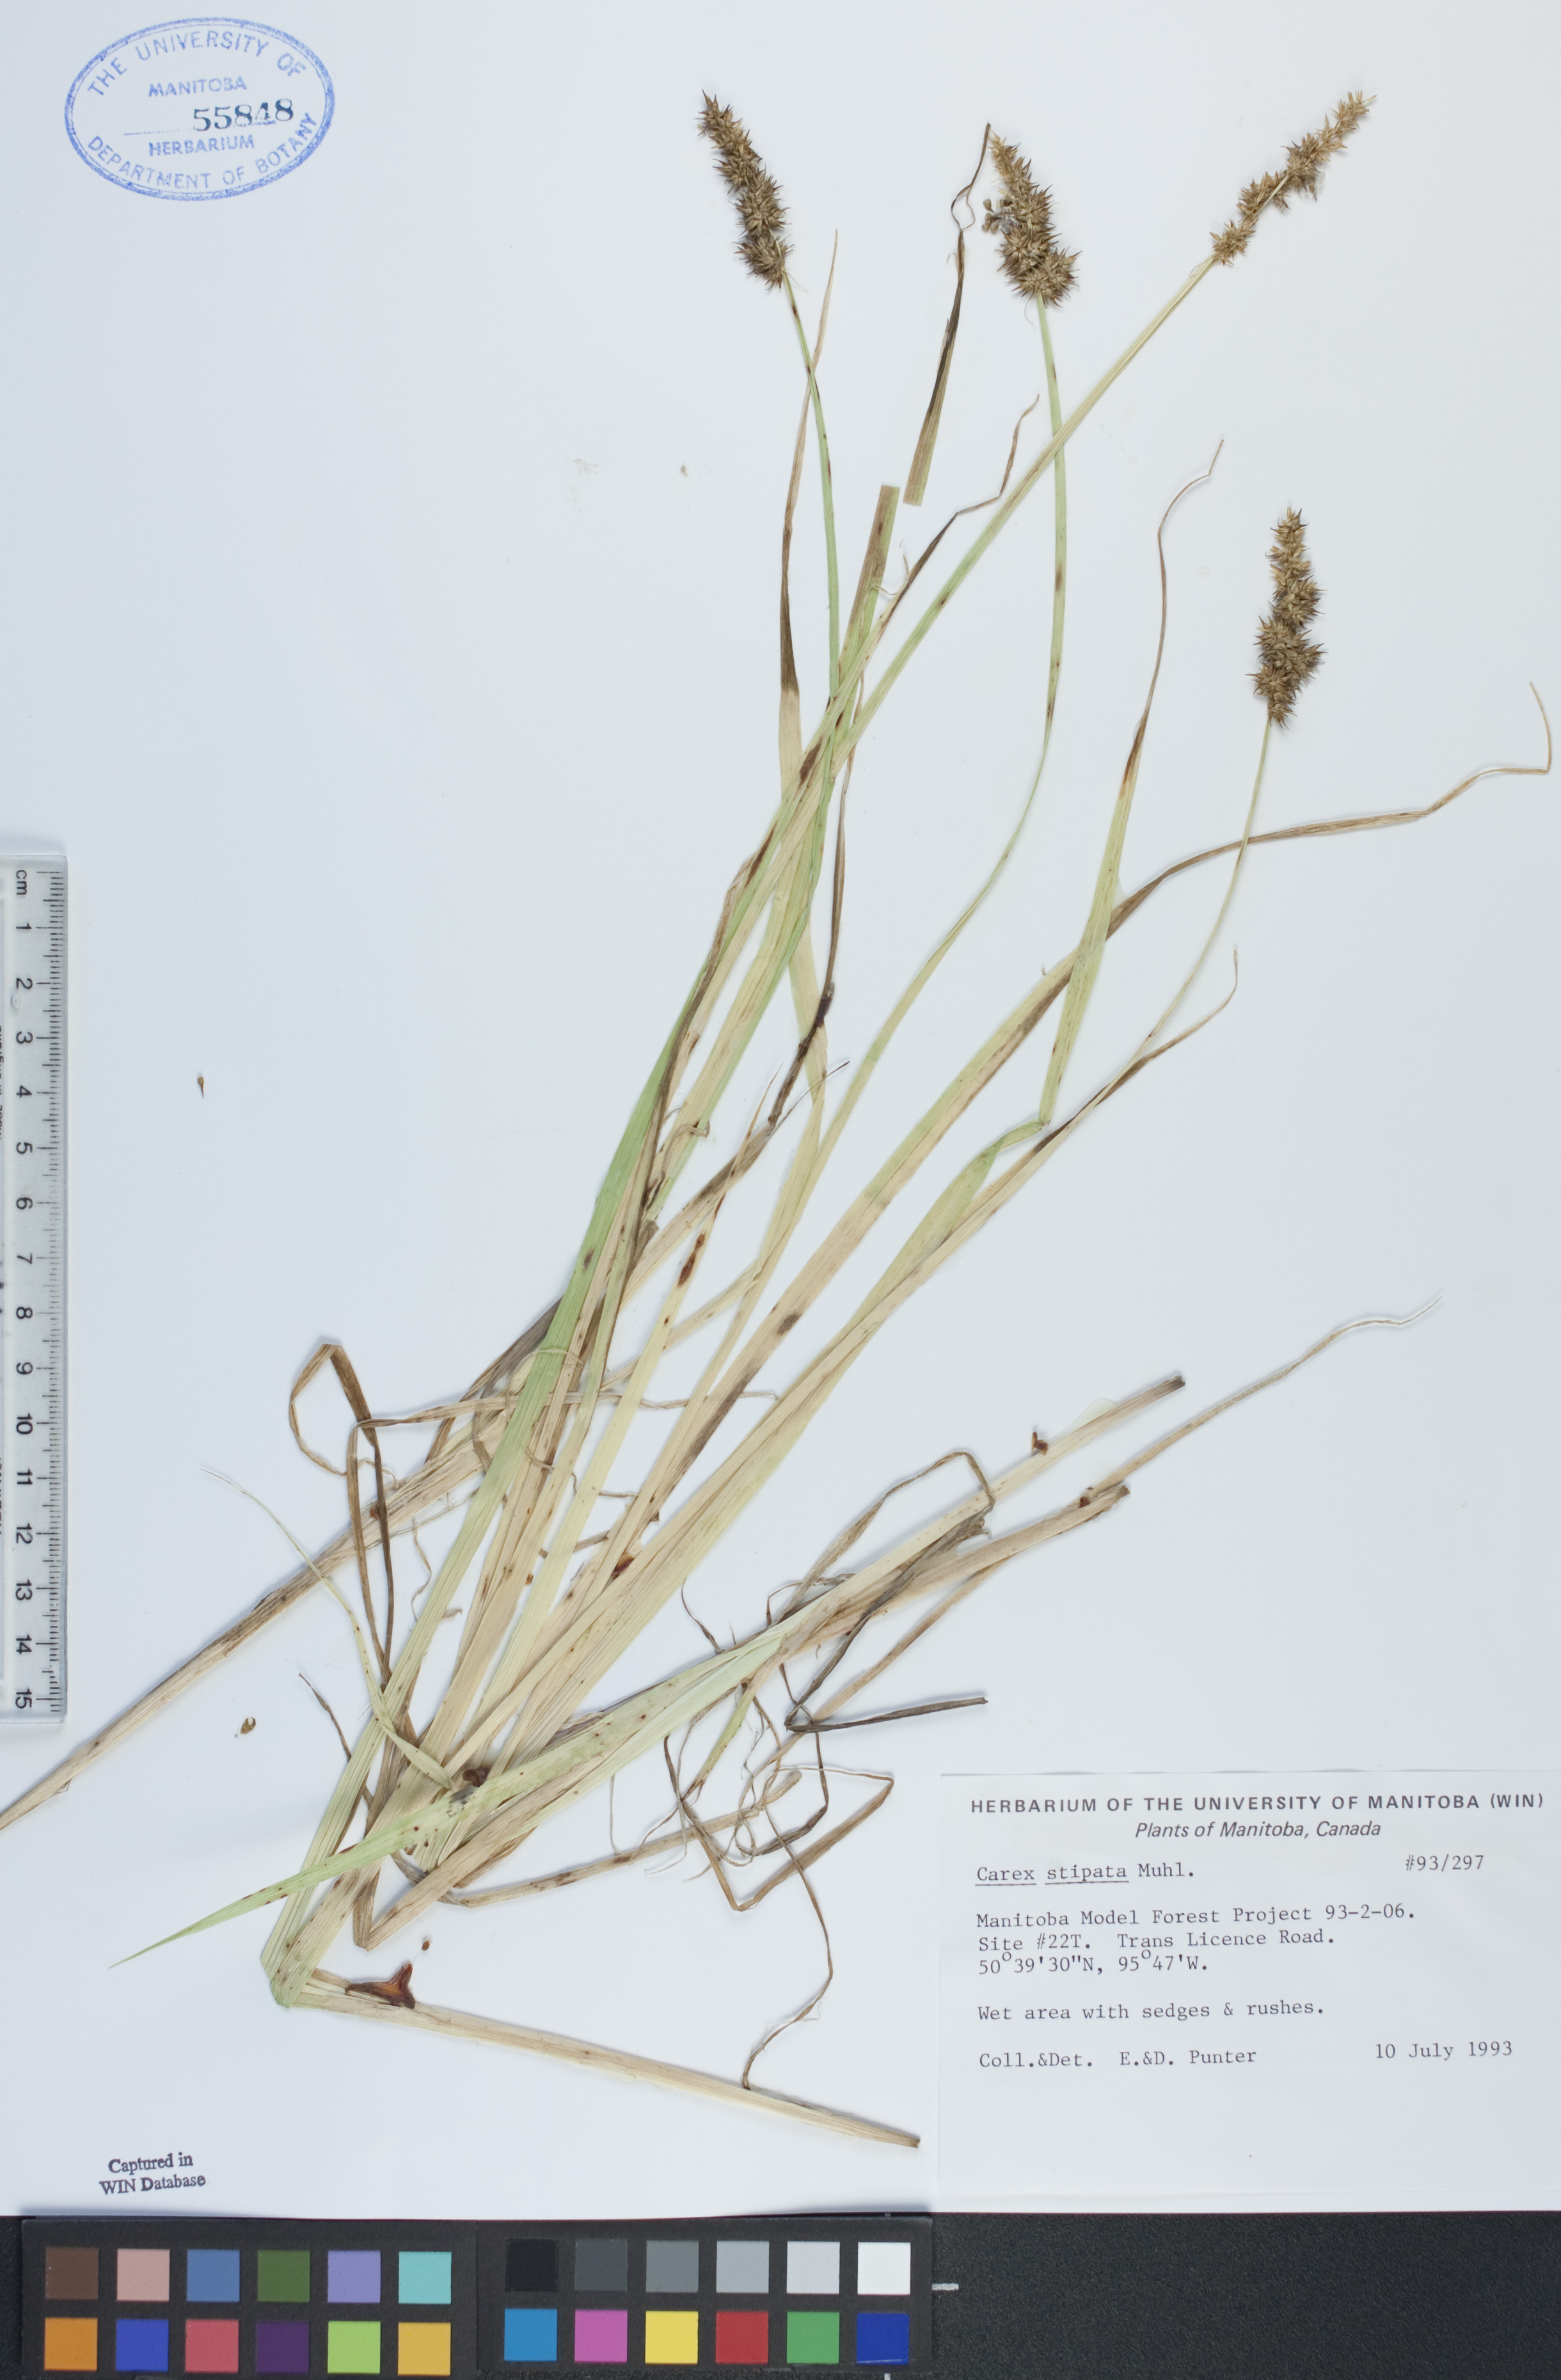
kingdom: Plantae
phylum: Tracheophyta
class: Liliopsida
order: Poales
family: Cyperaceae
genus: Carex
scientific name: Carex stipata
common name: Awl-fruited sedge
